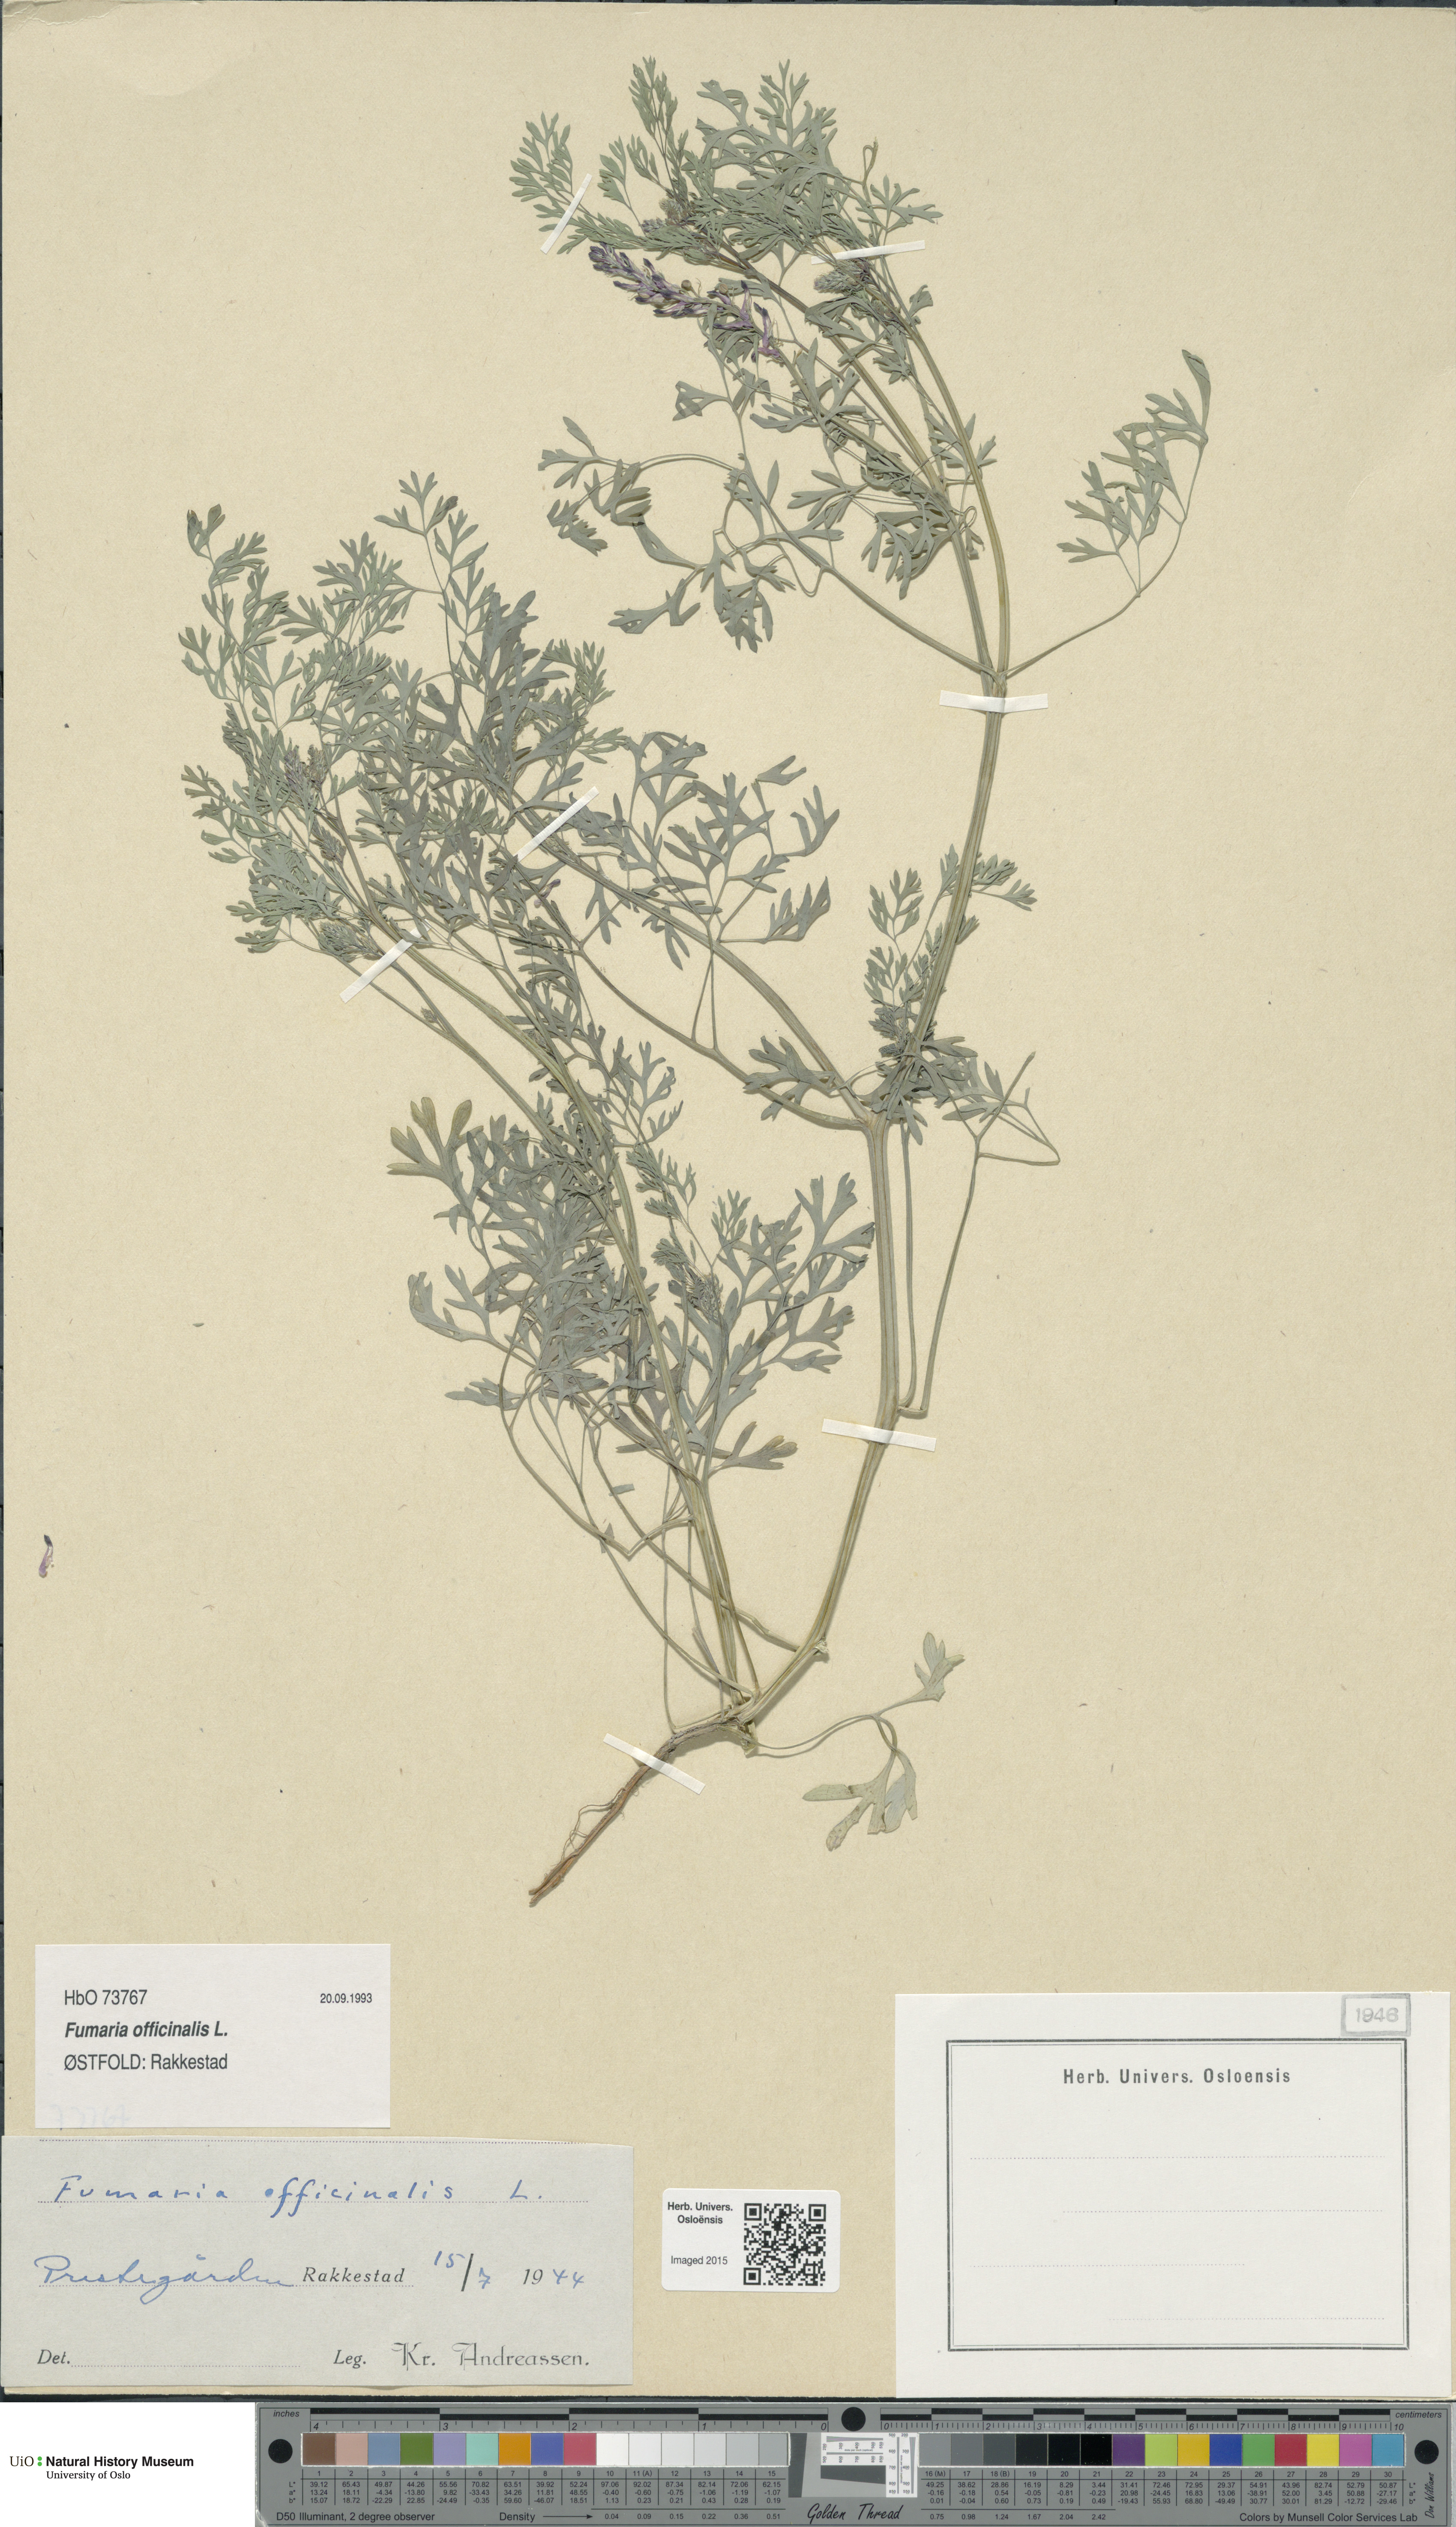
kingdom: Plantae
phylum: Tracheophyta
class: Magnoliopsida
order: Ranunculales
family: Papaveraceae
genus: Fumaria
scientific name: Fumaria officinalis
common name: Common fumitory
